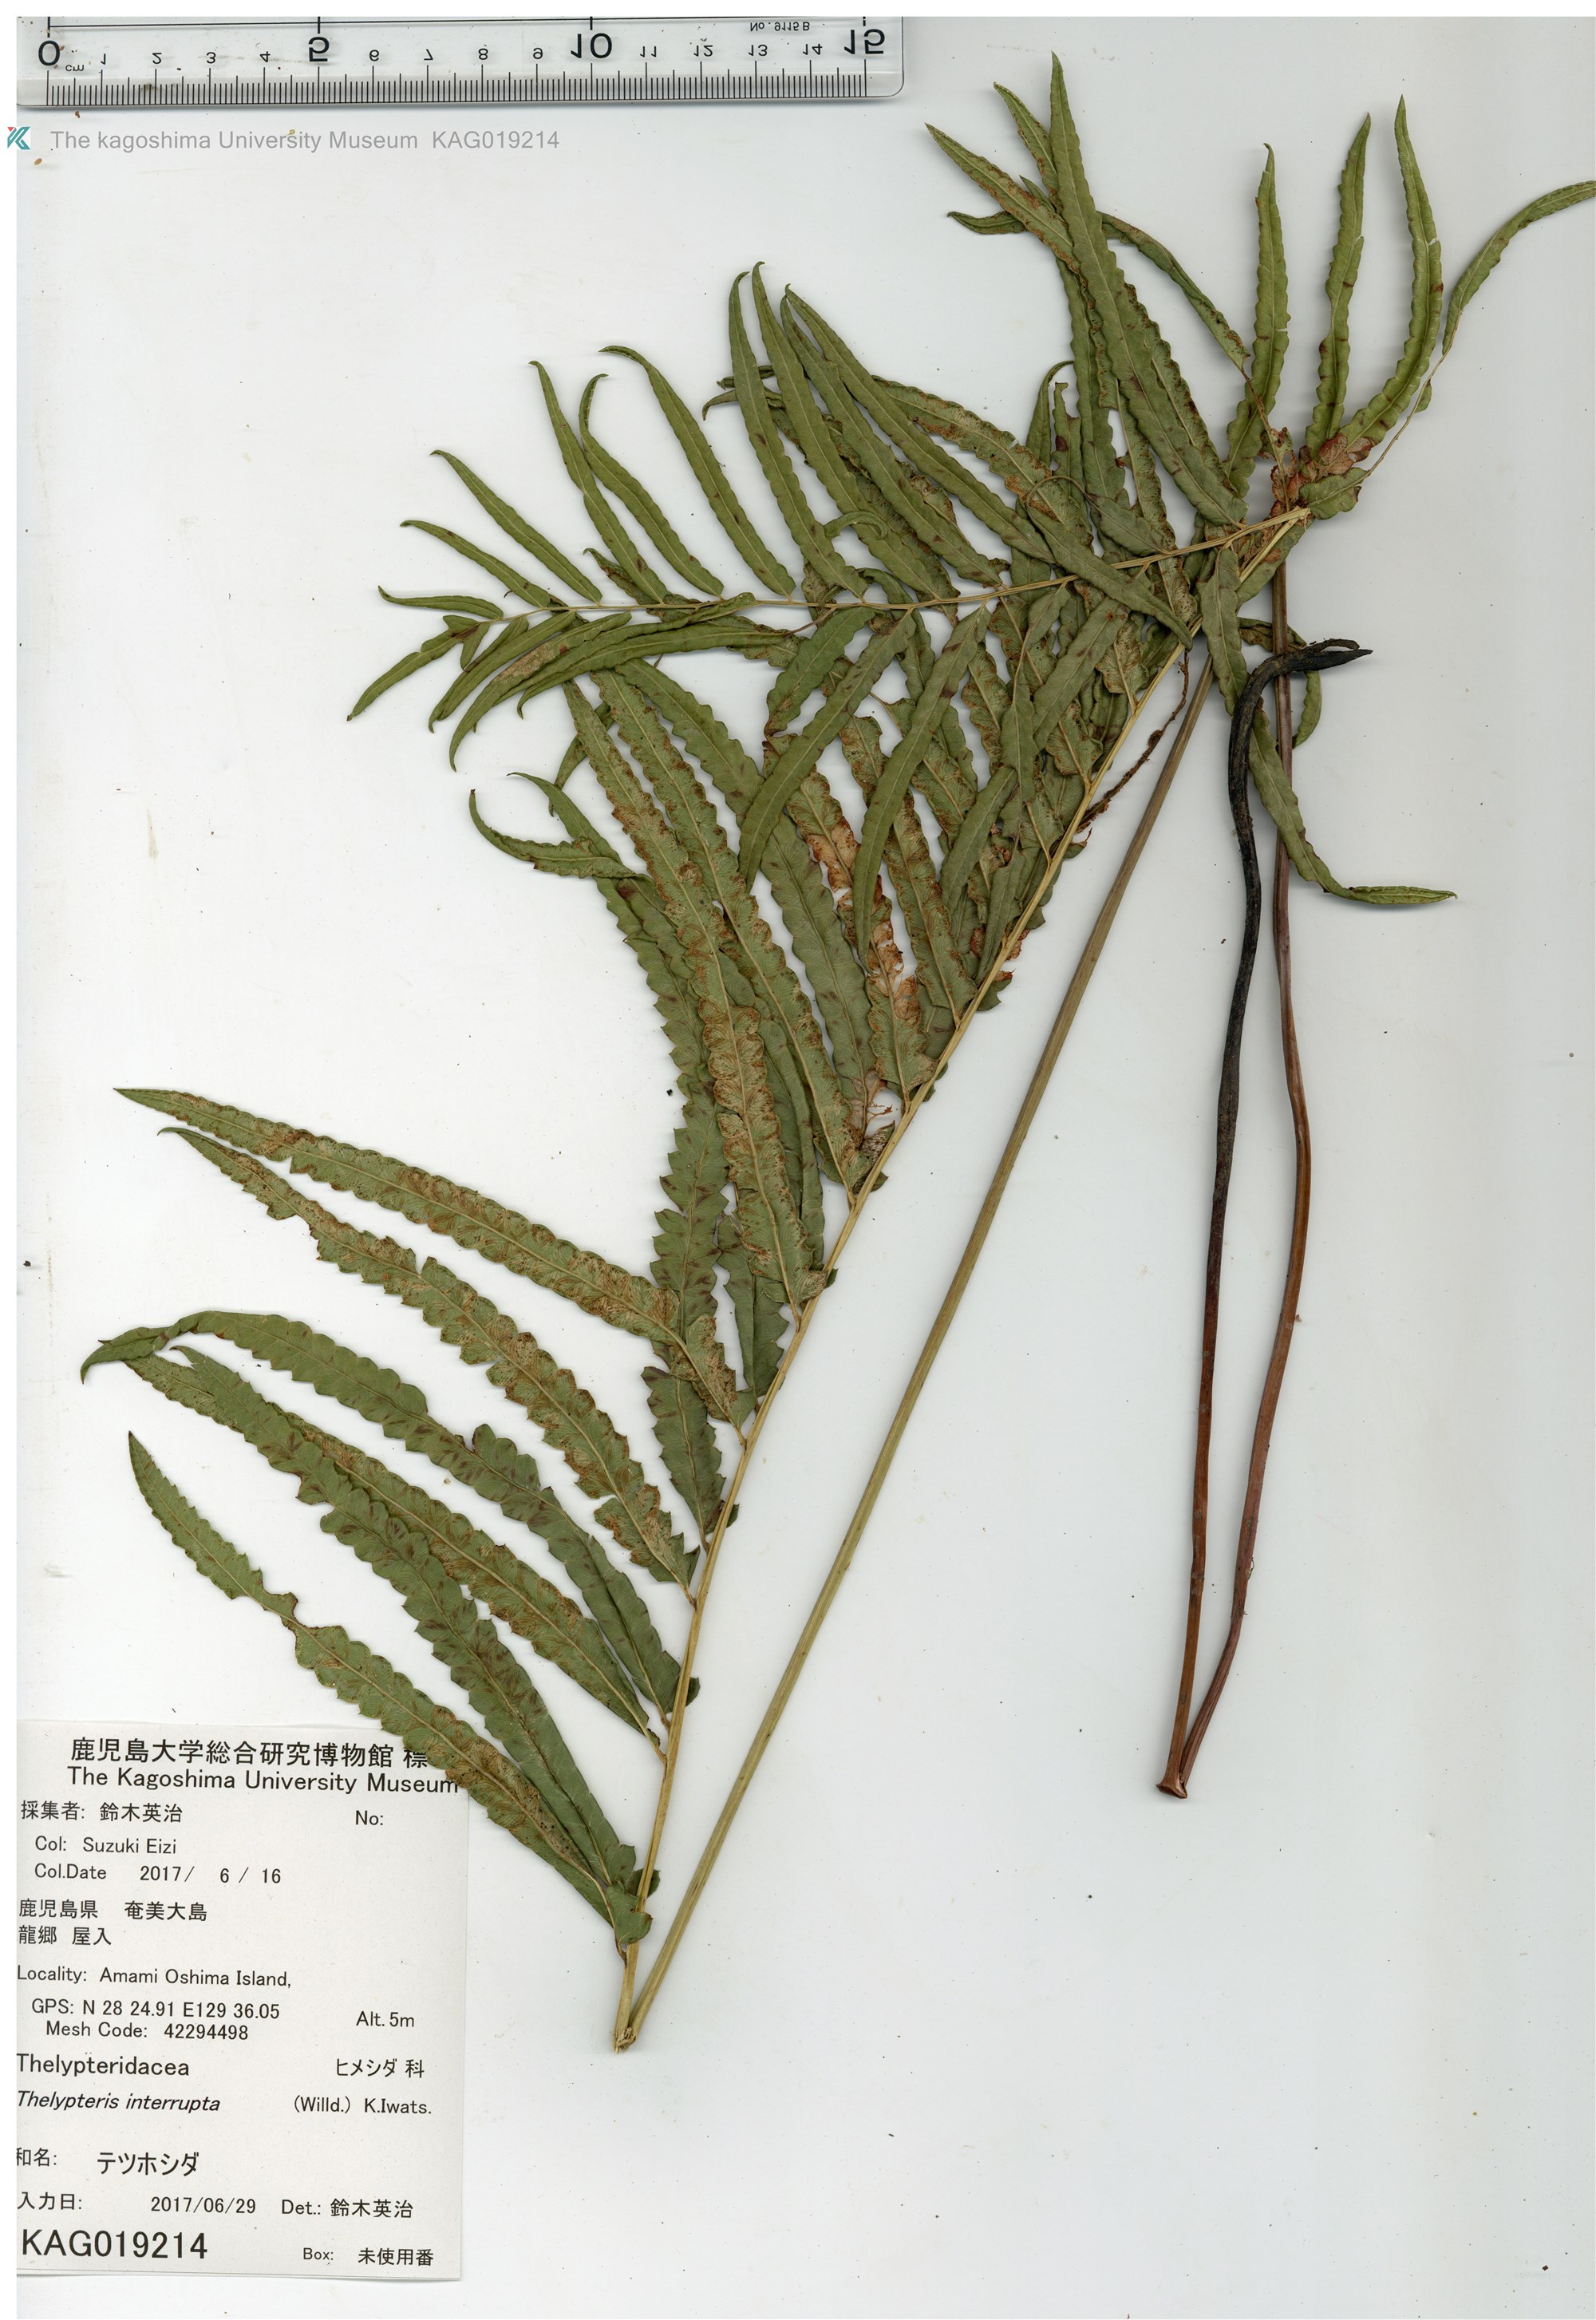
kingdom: Plantae
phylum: Tracheophyta
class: Polypodiopsida
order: Polypodiales
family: Thelypteridaceae
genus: Cyclosorus
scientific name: Cyclosorus interruptus
